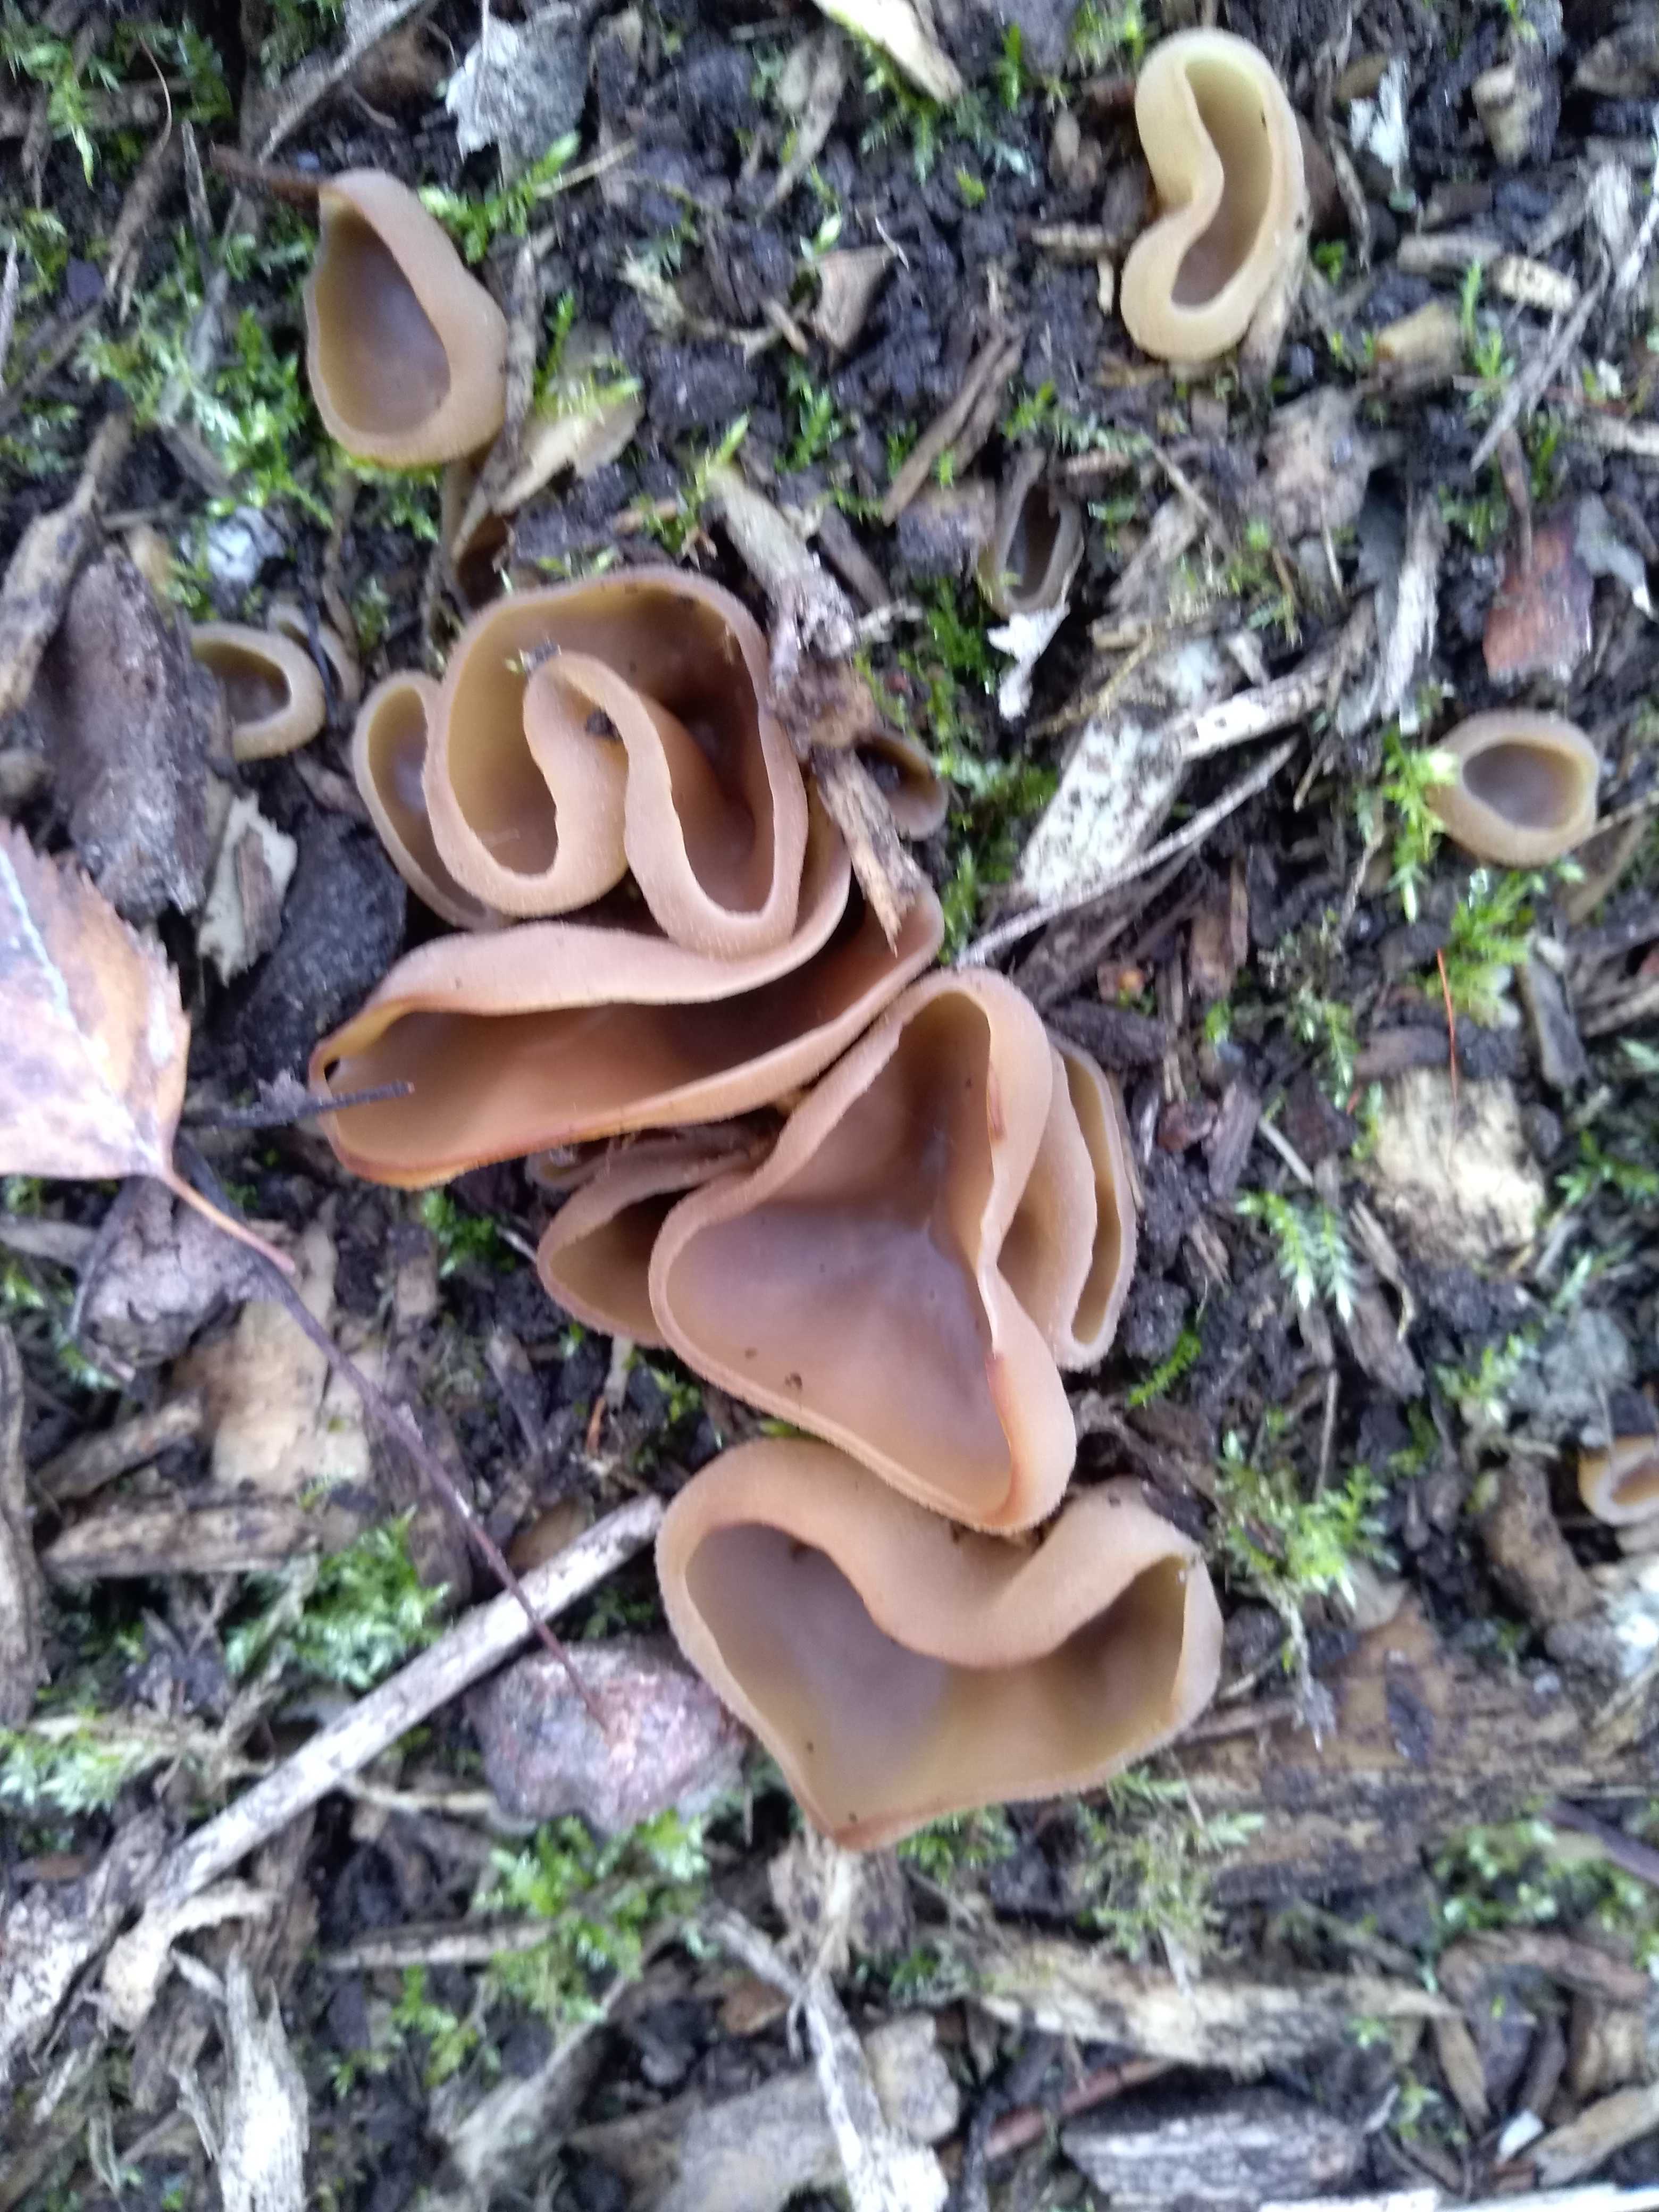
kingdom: Fungi
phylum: Ascomycota
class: Pezizomycetes
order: Pezizales
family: Pezizaceae
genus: Peziza
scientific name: Peziza
